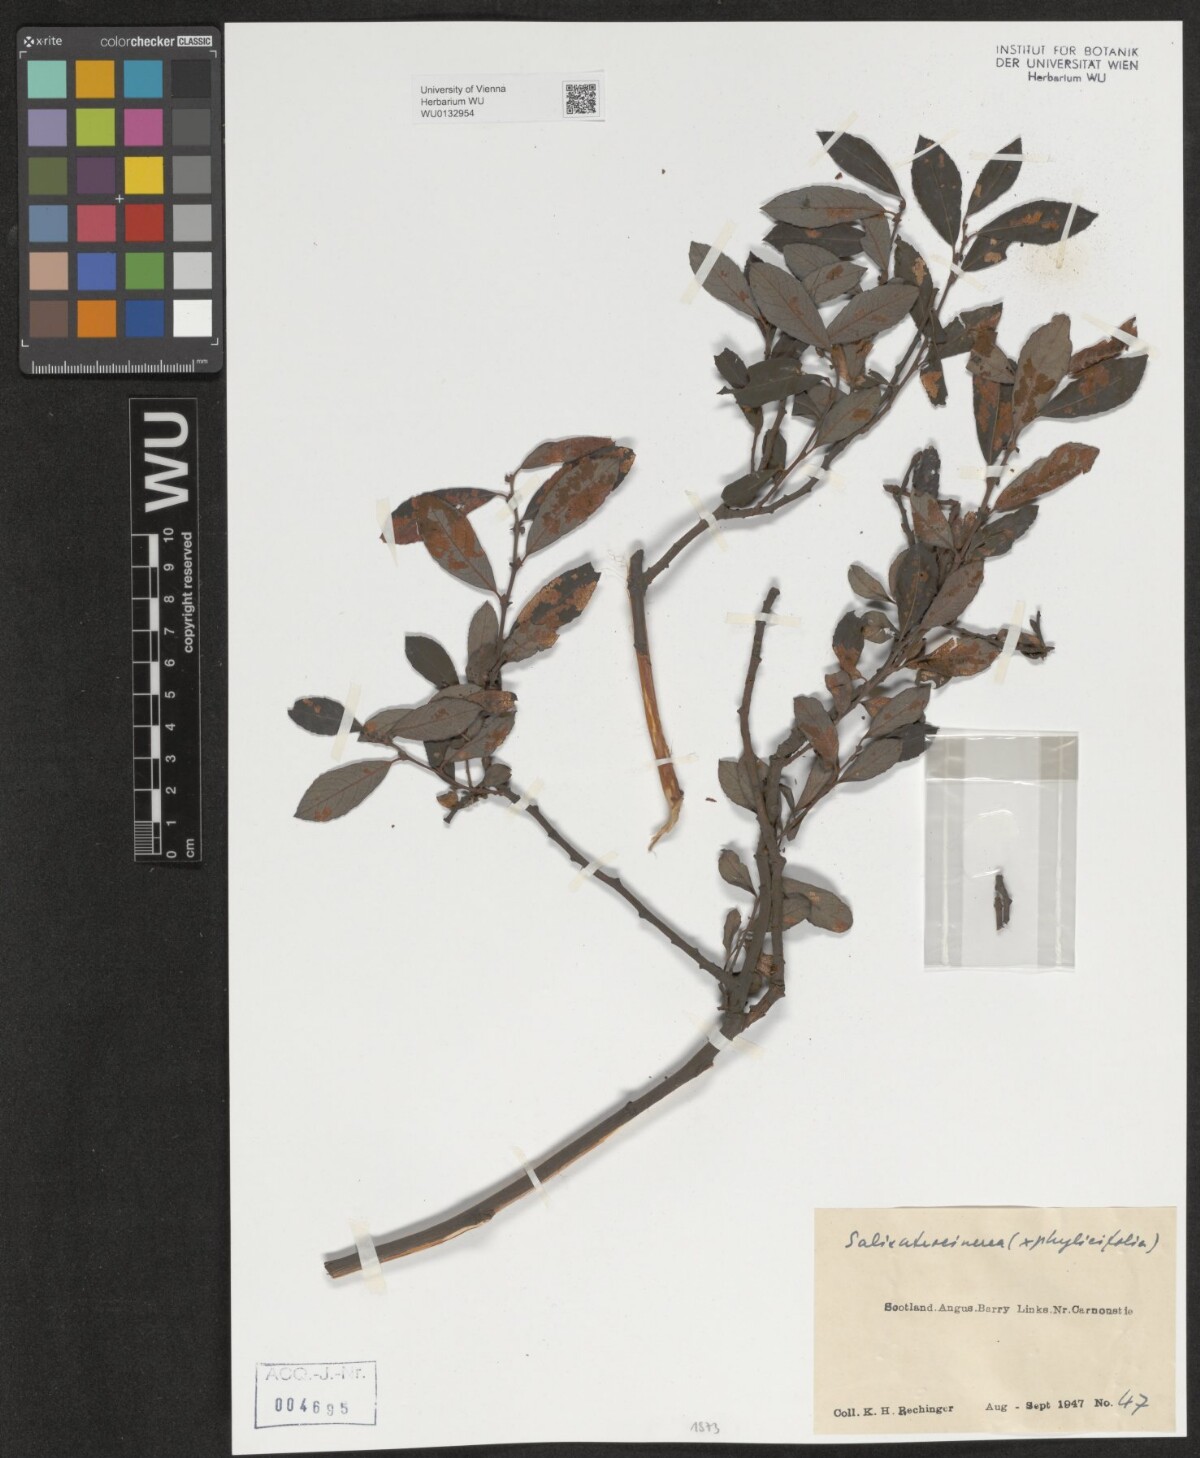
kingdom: Plantae
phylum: Tracheophyta
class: Magnoliopsida
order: Malpighiales
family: Salicaceae
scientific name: Salicaceae
